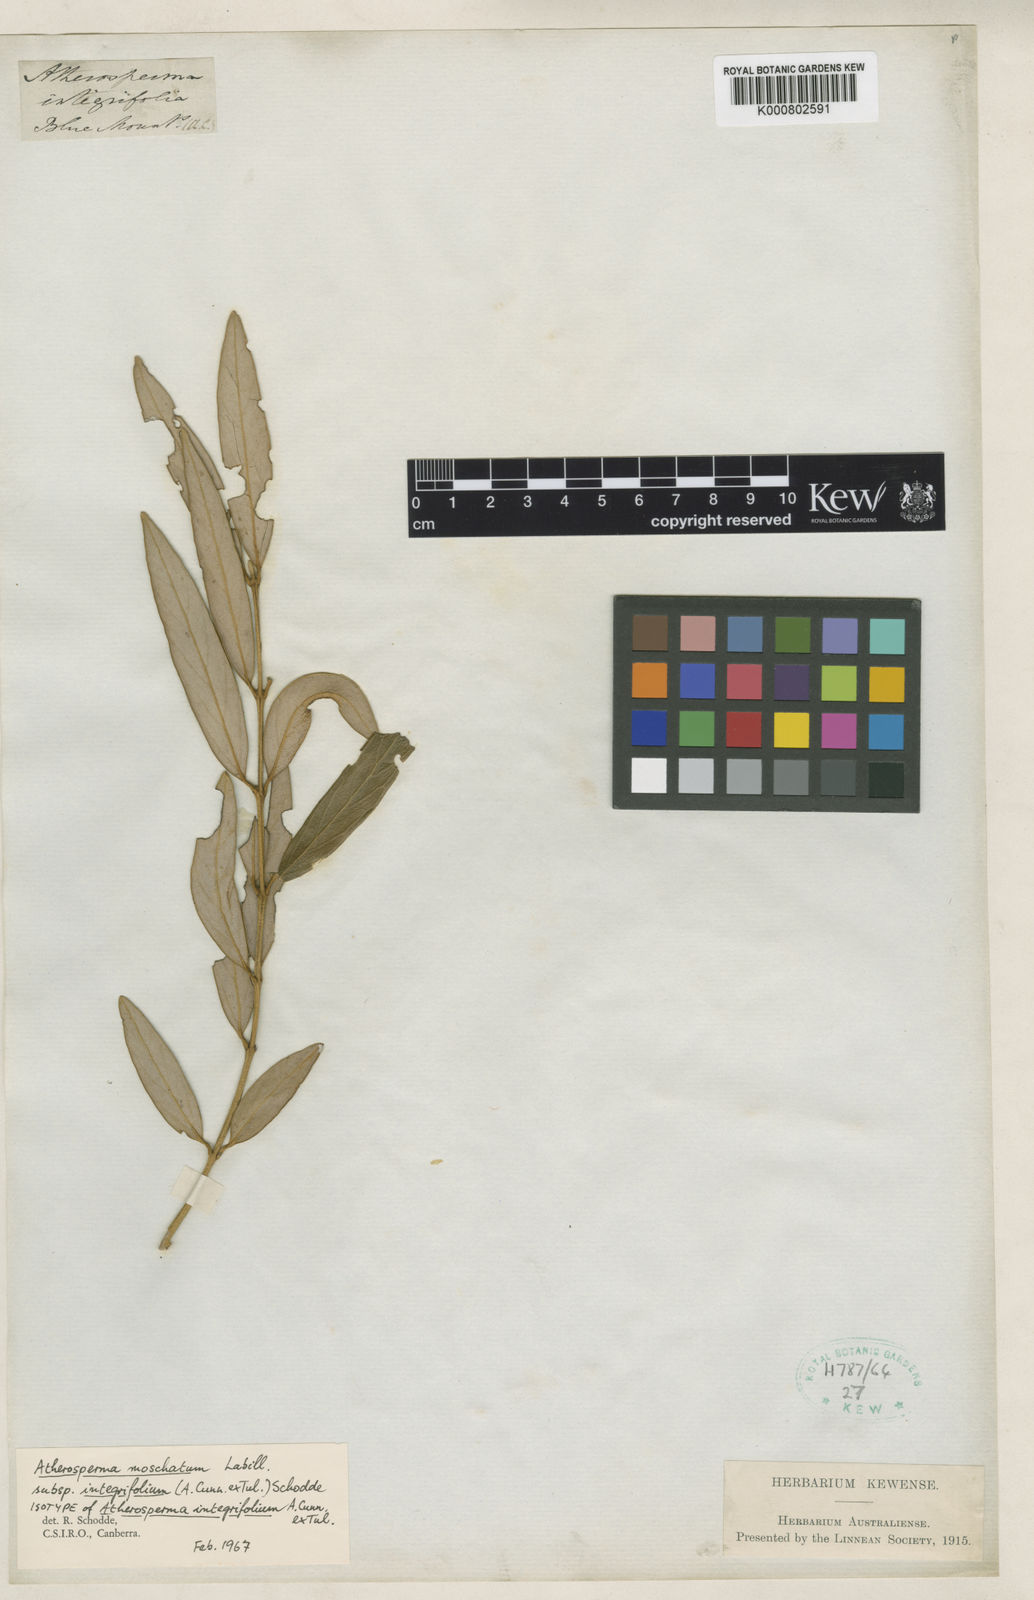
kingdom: Plantae
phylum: Tracheophyta
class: Magnoliopsida
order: Laurales
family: Atherospermataceae
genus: Atherosperma
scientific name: Atherosperma moschatum
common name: Tasmanian-sassafras
